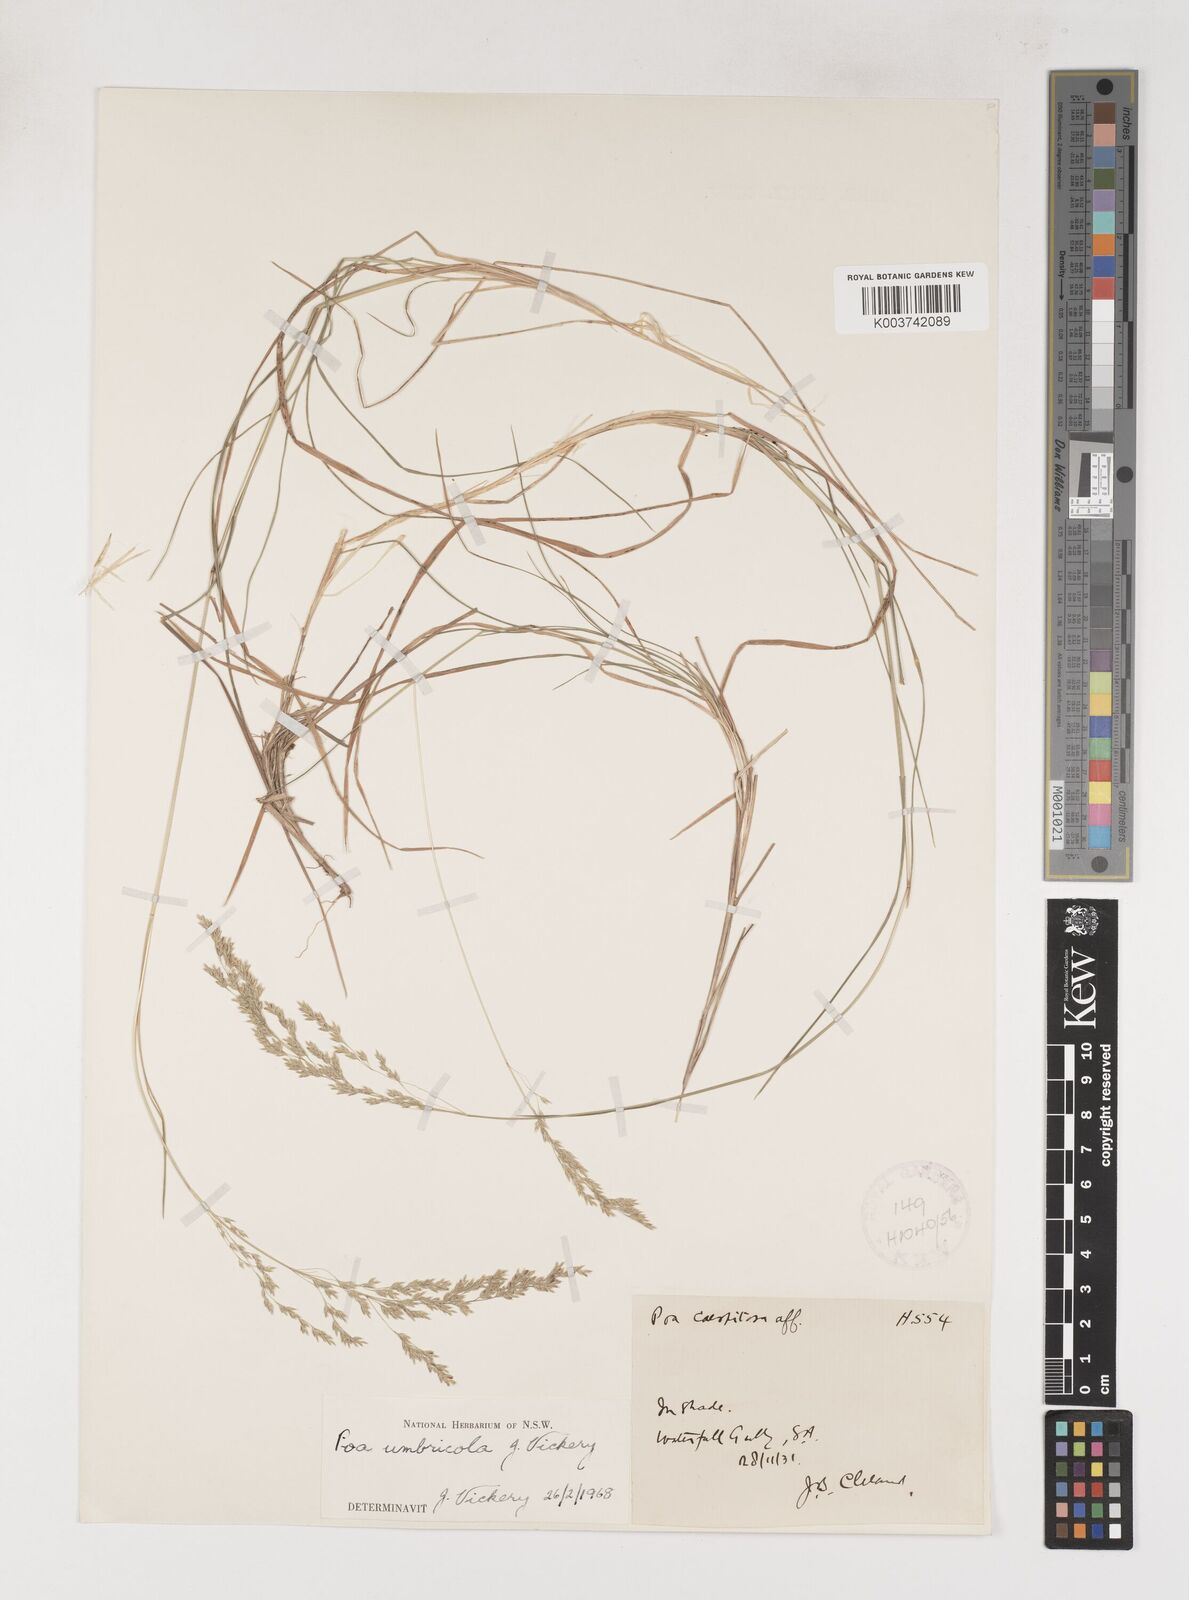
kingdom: Plantae
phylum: Tracheophyta
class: Liliopsida
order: Poales
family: Poaceae
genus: Poa
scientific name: Poa umbricola
